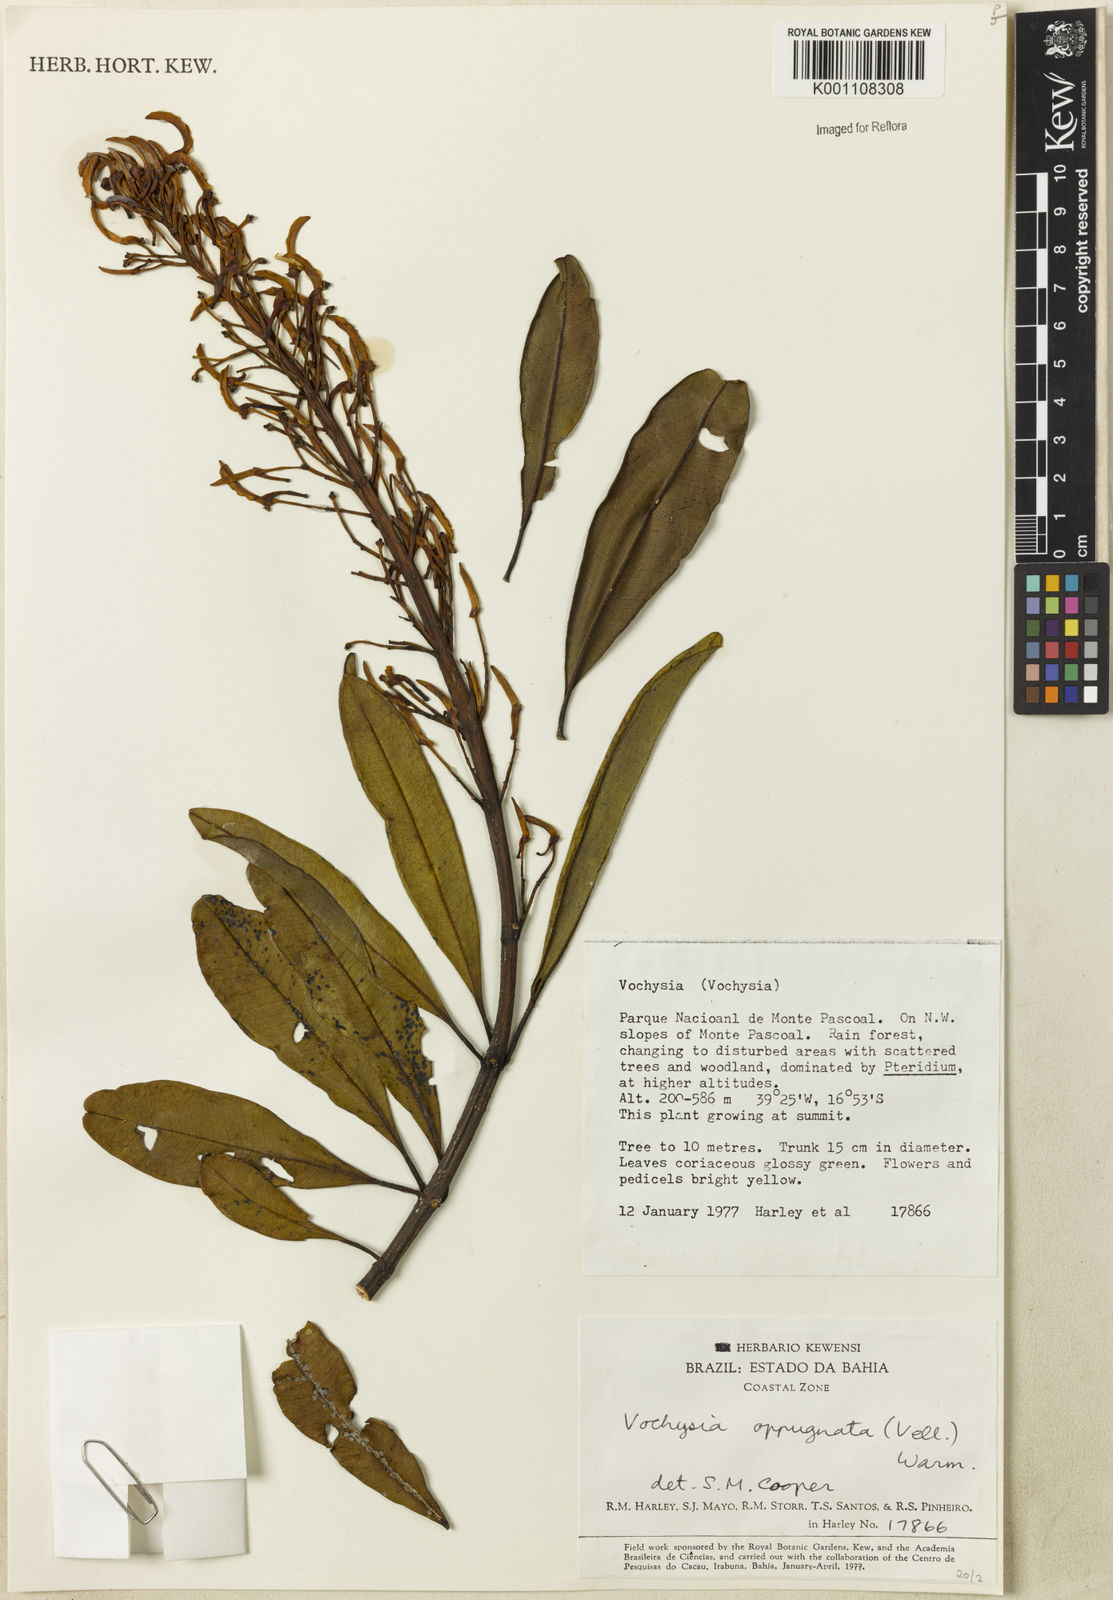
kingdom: Plantae
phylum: Tracheophyta
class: Magnoliopsida
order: Myrtales
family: Vochysiaceae
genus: Vochysia
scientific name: Vochysia oppugnata
